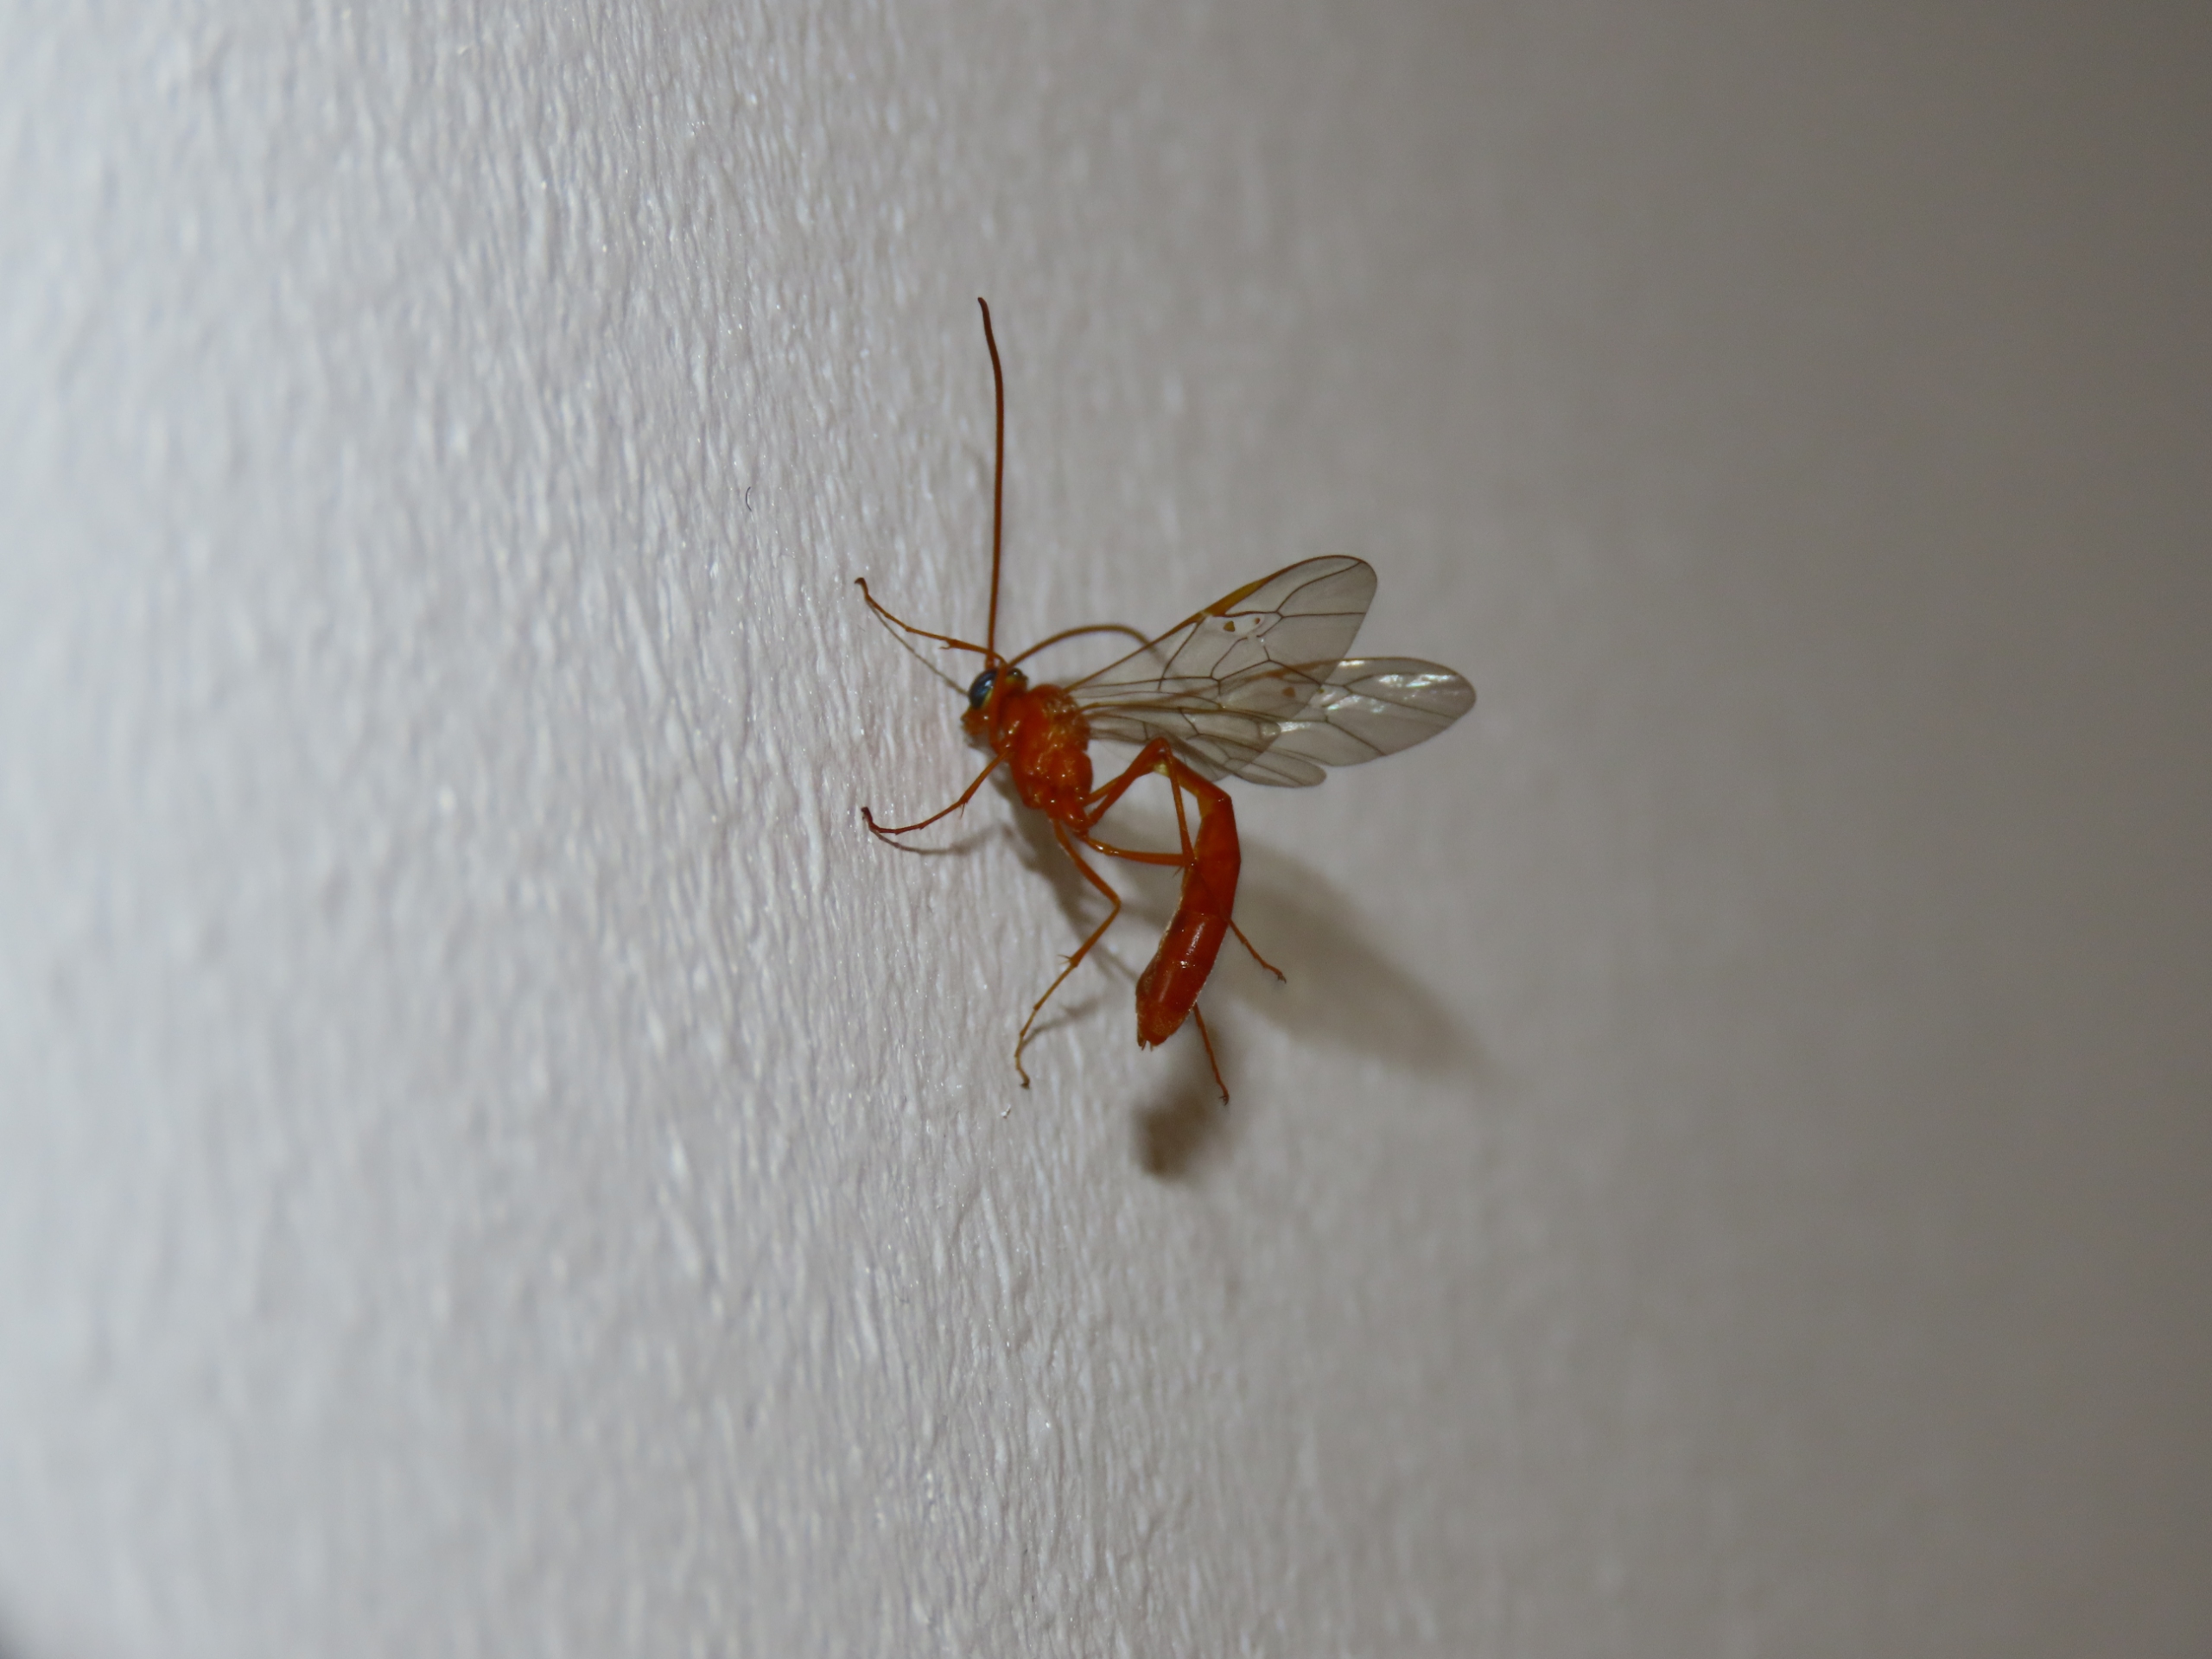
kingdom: Animalia
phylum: Arthropoda
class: Insecta
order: Hymenoptera
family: Ichneumonidae
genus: Netelia
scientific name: Netelia
